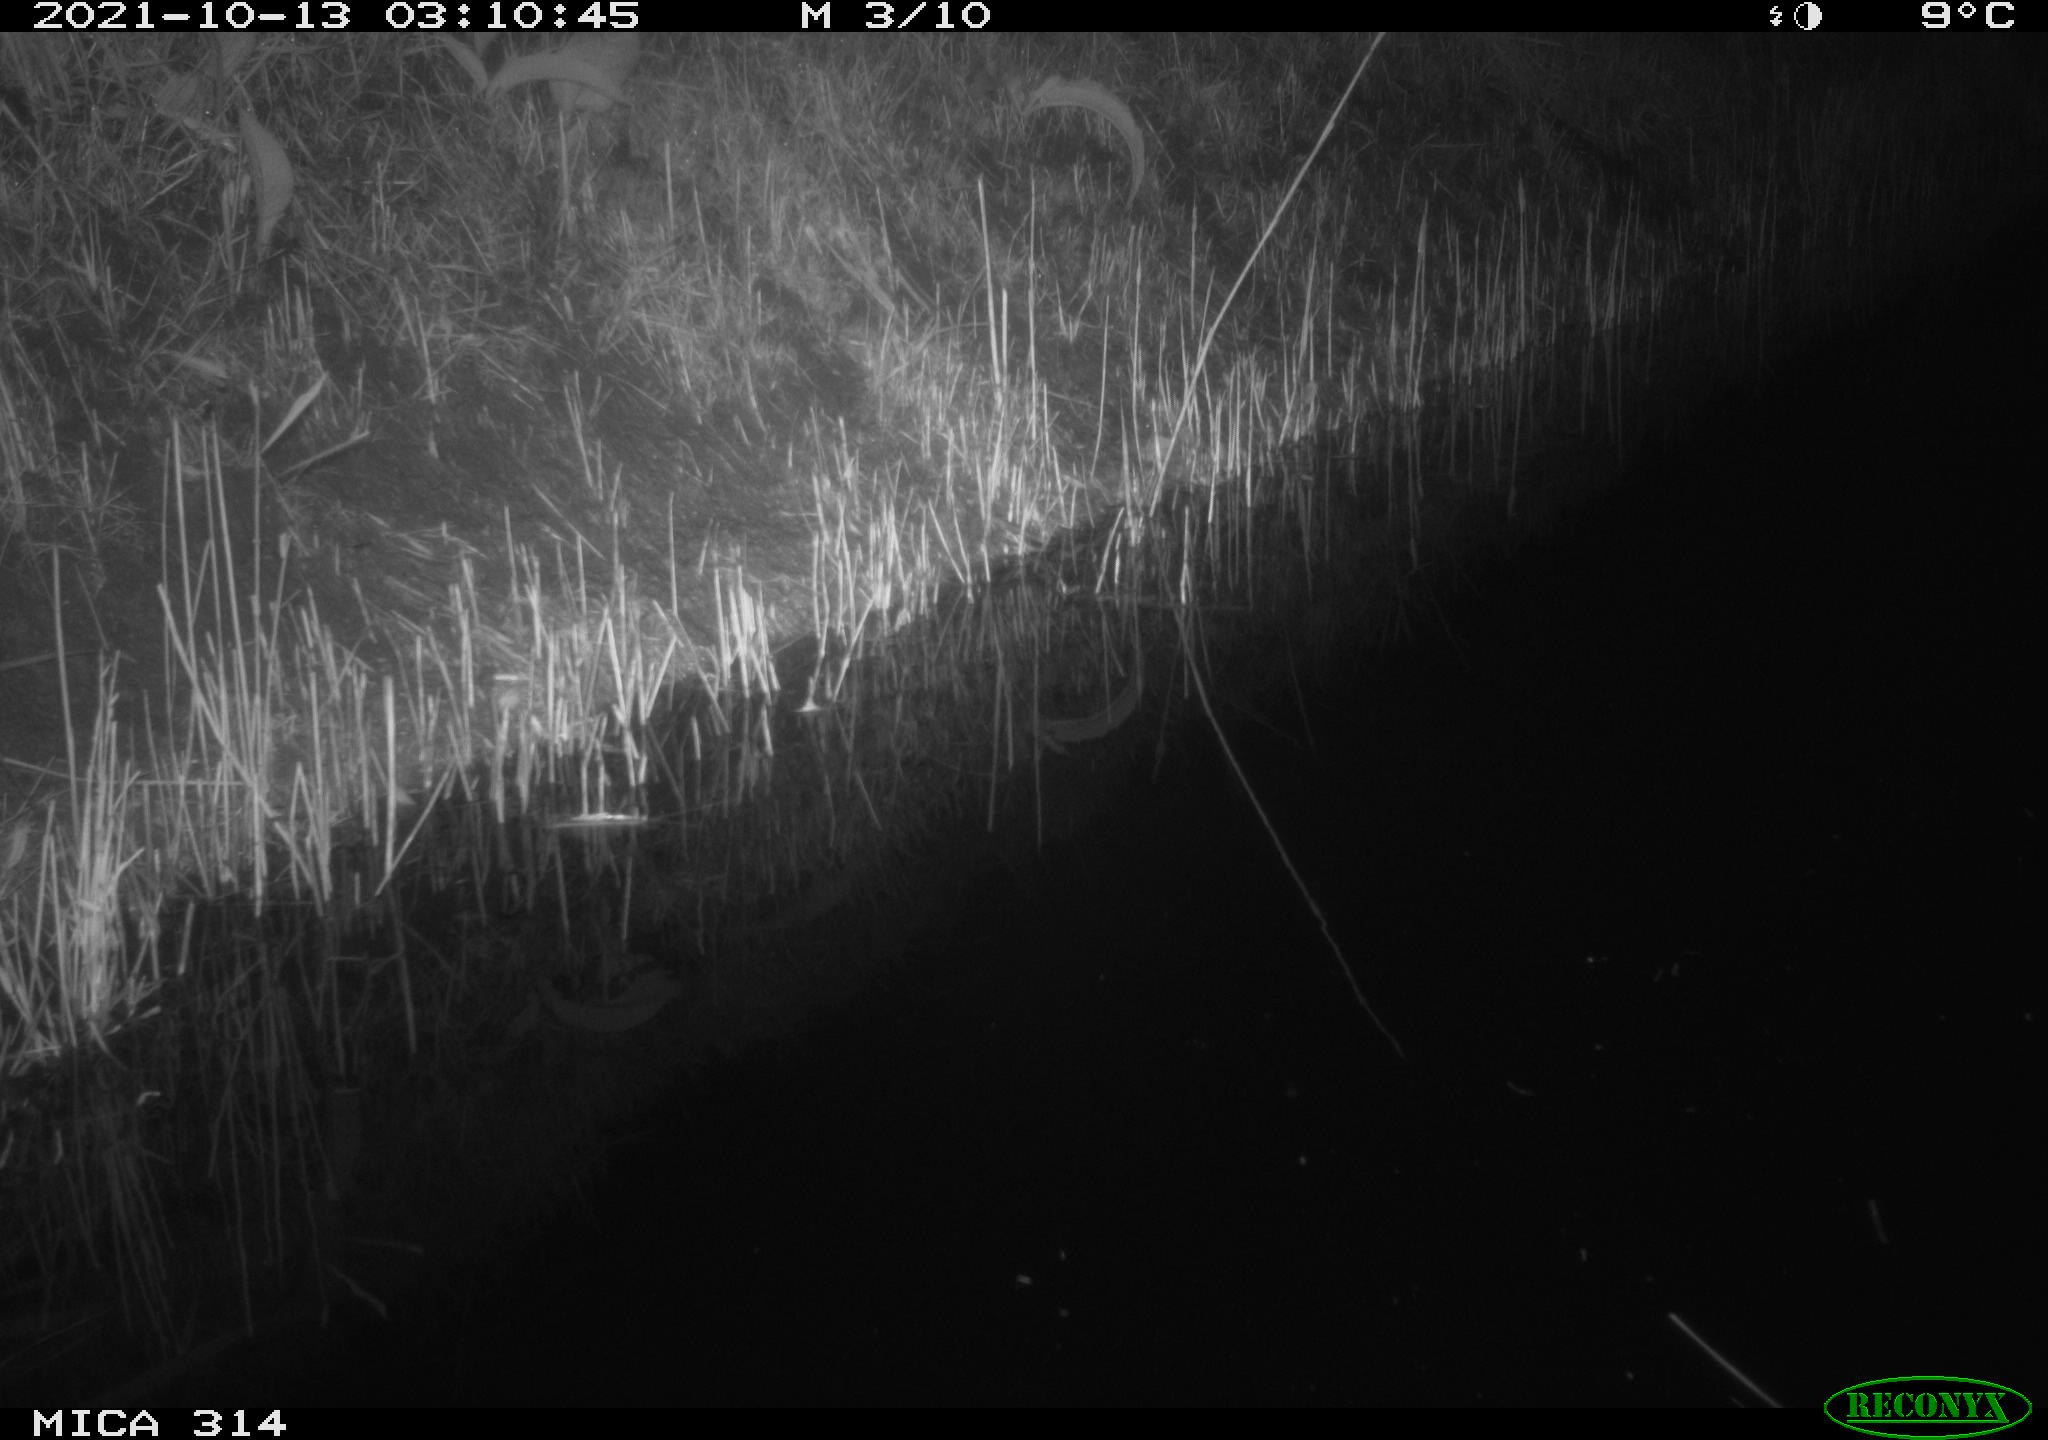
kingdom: Animalia
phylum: Chordata
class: Mammalia
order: Rodentia
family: Muridae
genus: Rattus
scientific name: Rattus norvegicus
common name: Brown rat
